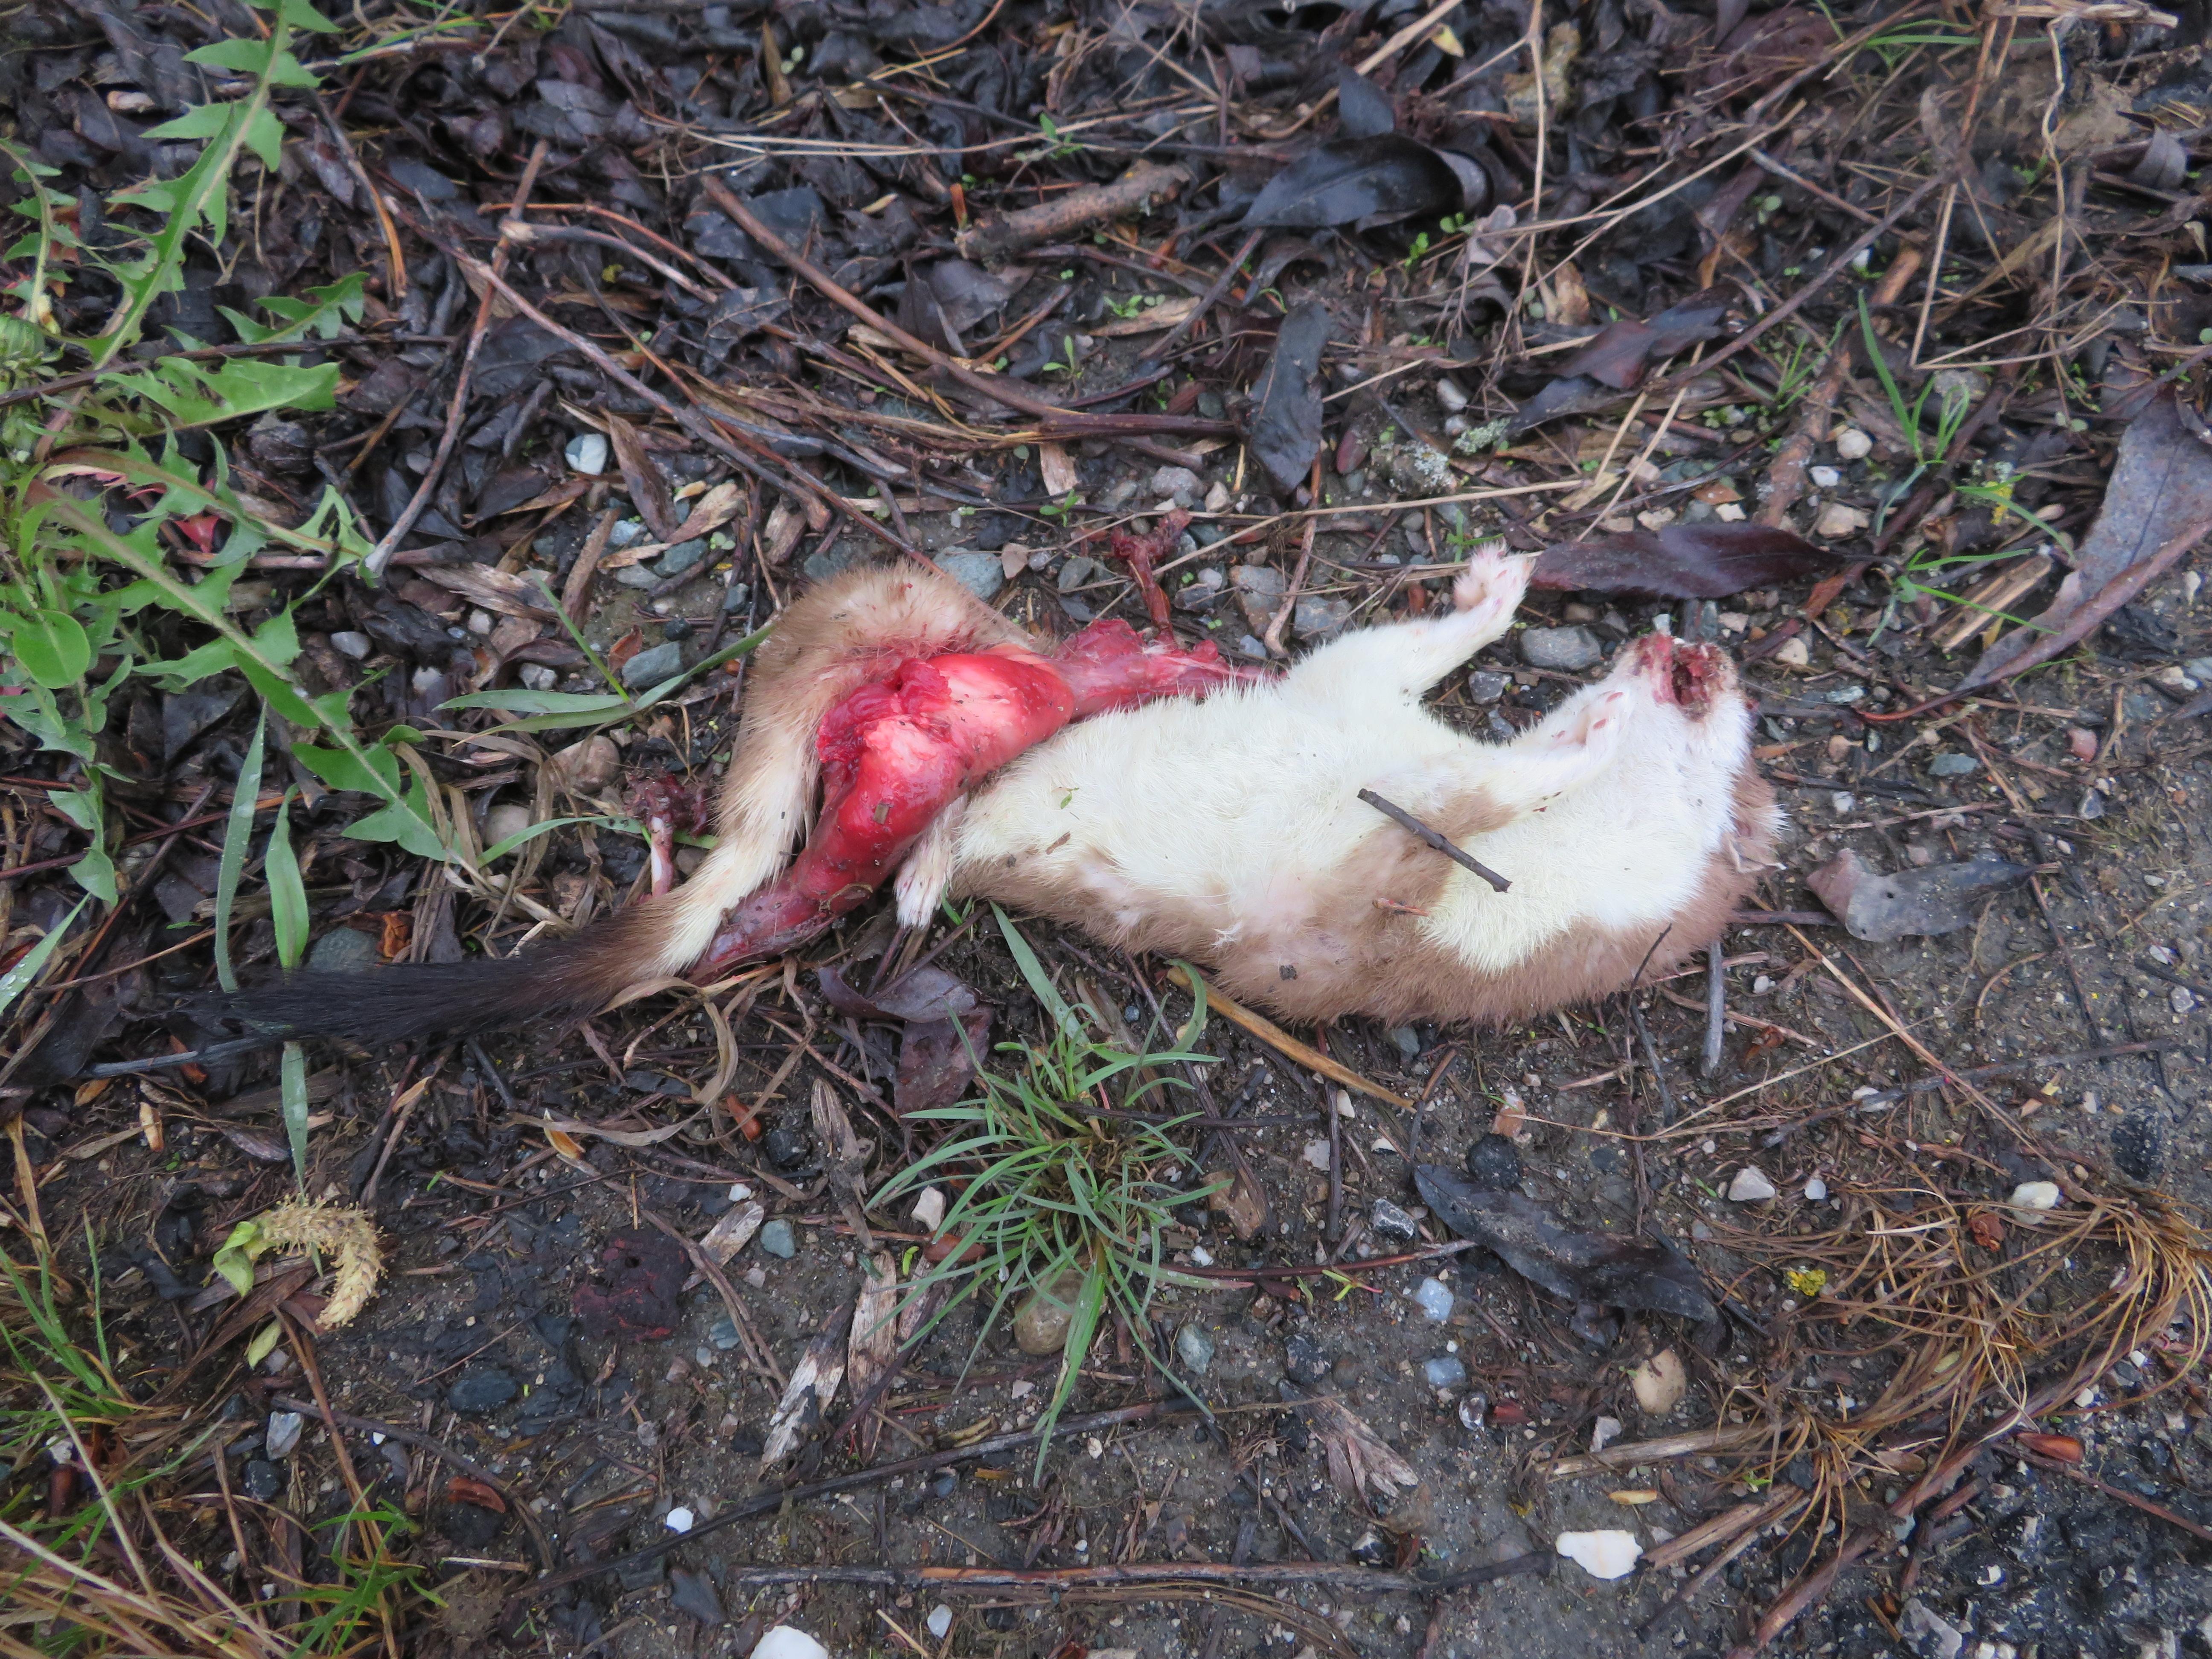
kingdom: Animalia
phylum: Chordata
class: Mammalia
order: Carnivora
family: Mustelidae
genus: Mustela
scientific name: Mustela erminea
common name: Stoat
